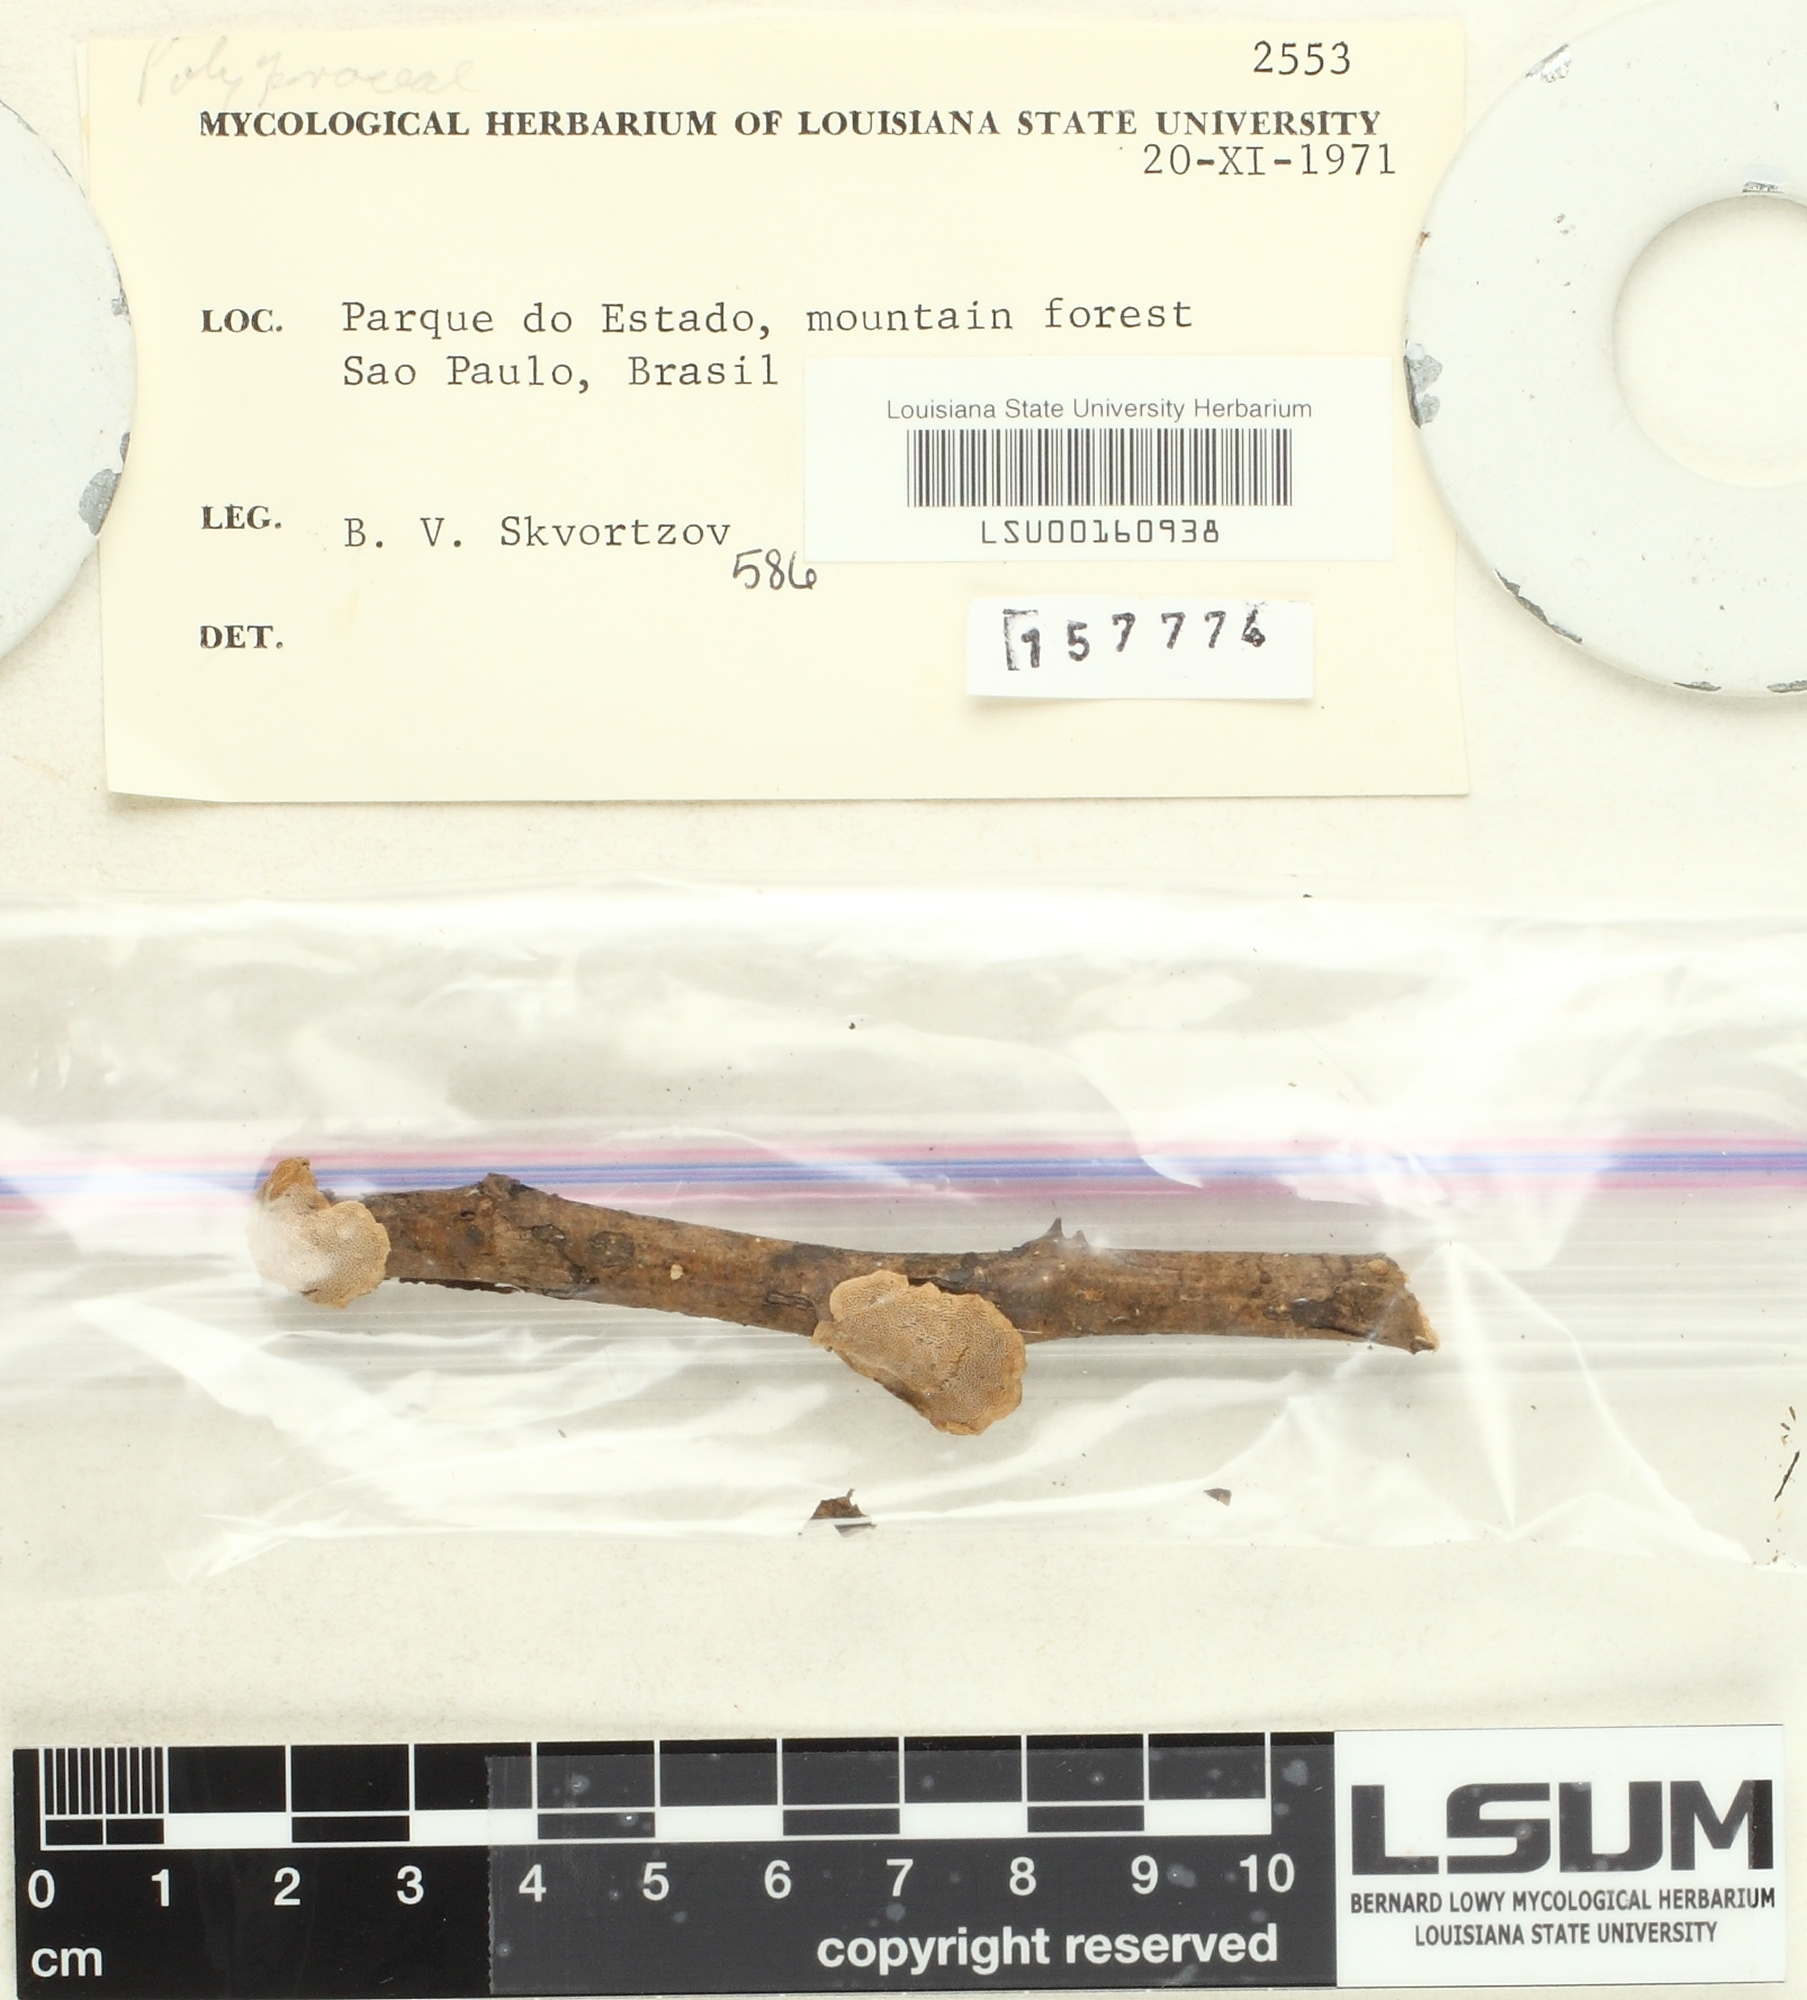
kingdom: Fungi
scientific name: Fungi
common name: Fungi
